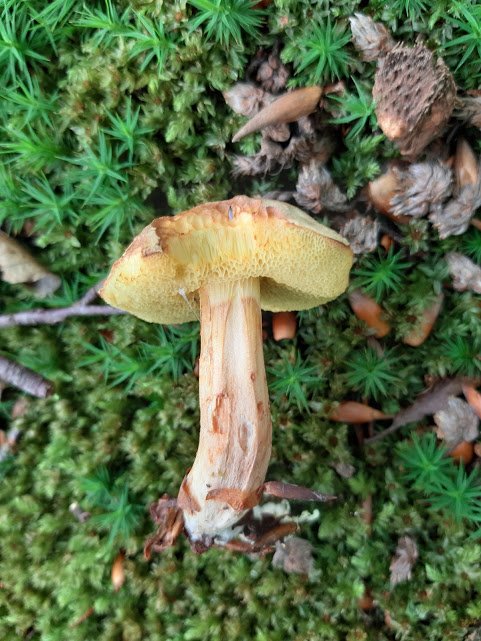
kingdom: Fungi
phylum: Basidiomycota
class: Agaricomycetes
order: Boletales
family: Boletaceae
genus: Xerocomus
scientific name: Xerocomus
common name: filtrørhat
